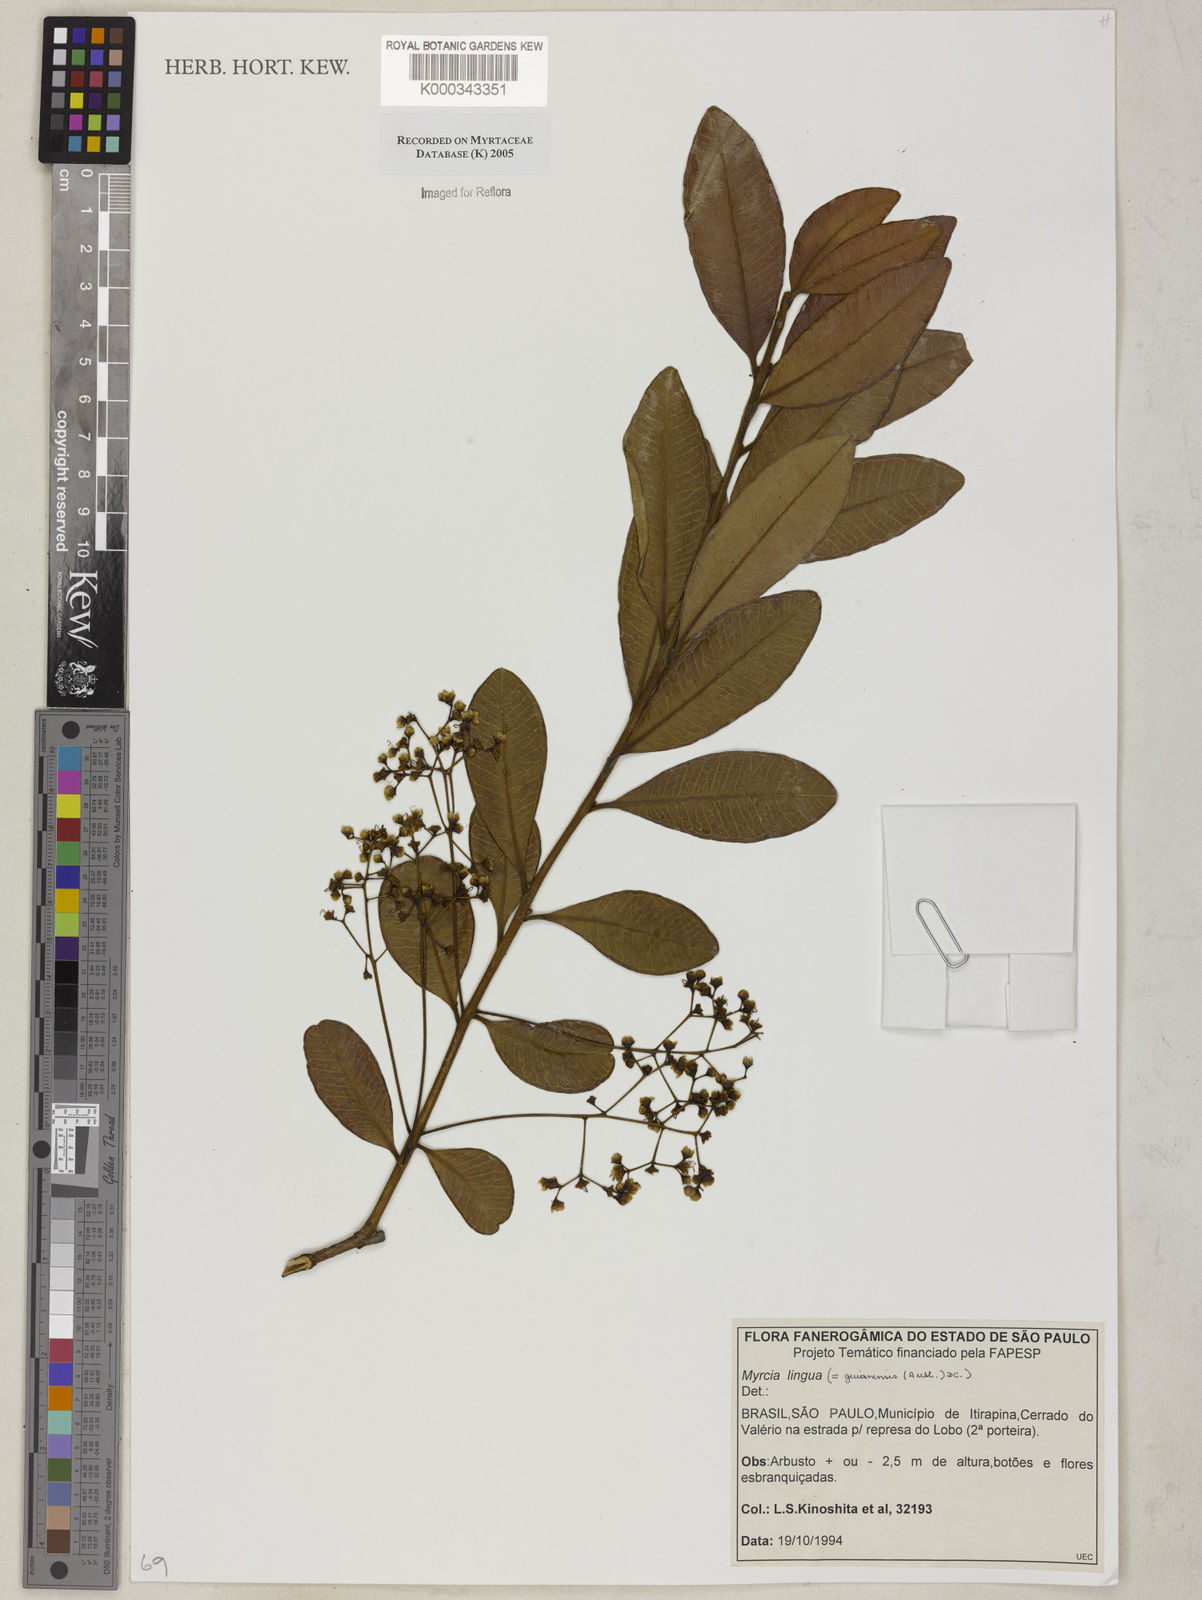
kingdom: Plantae
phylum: Tracheophyta
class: Magnoliopsida
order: Myrtales
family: Myrtaceae
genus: Myrcia
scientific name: Myrcia guianensis
